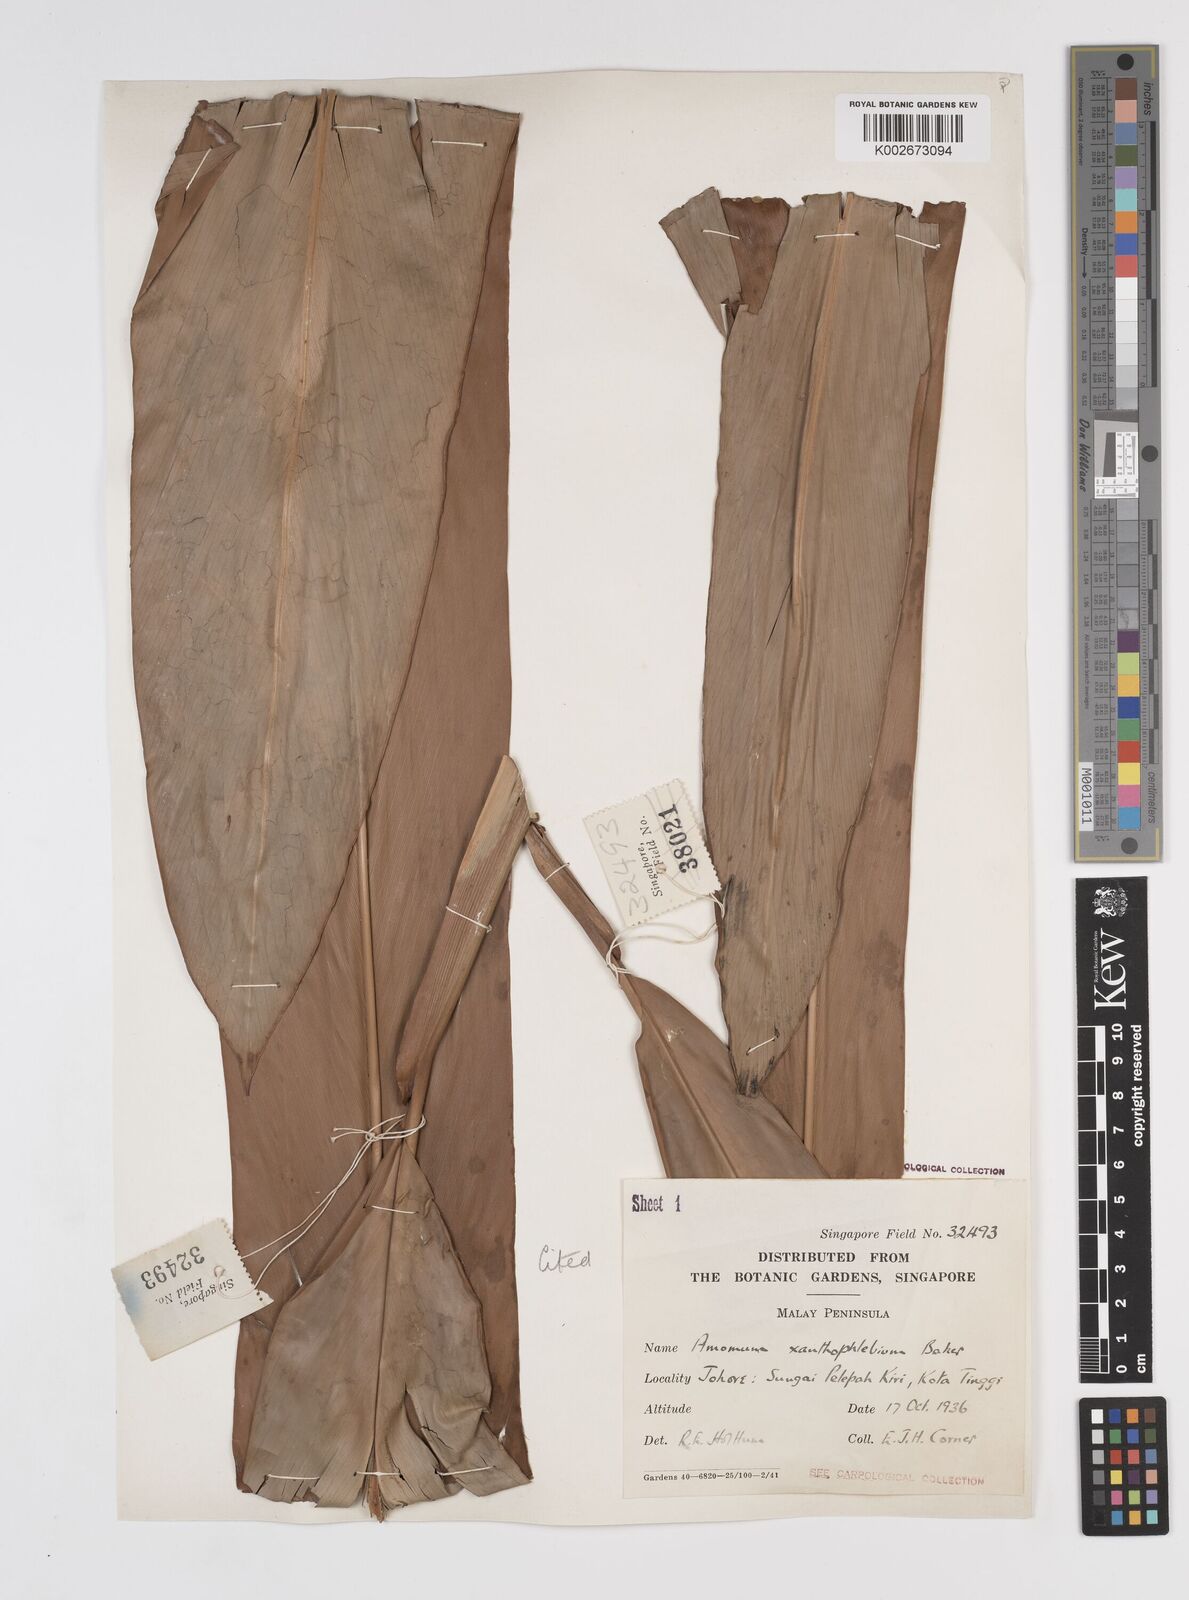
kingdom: Plantae
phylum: Tracheophyta
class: Liliopsida
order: Zingiberales
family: Zingiberaceae
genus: Conamomum
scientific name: Conamomum xanthophlebium
